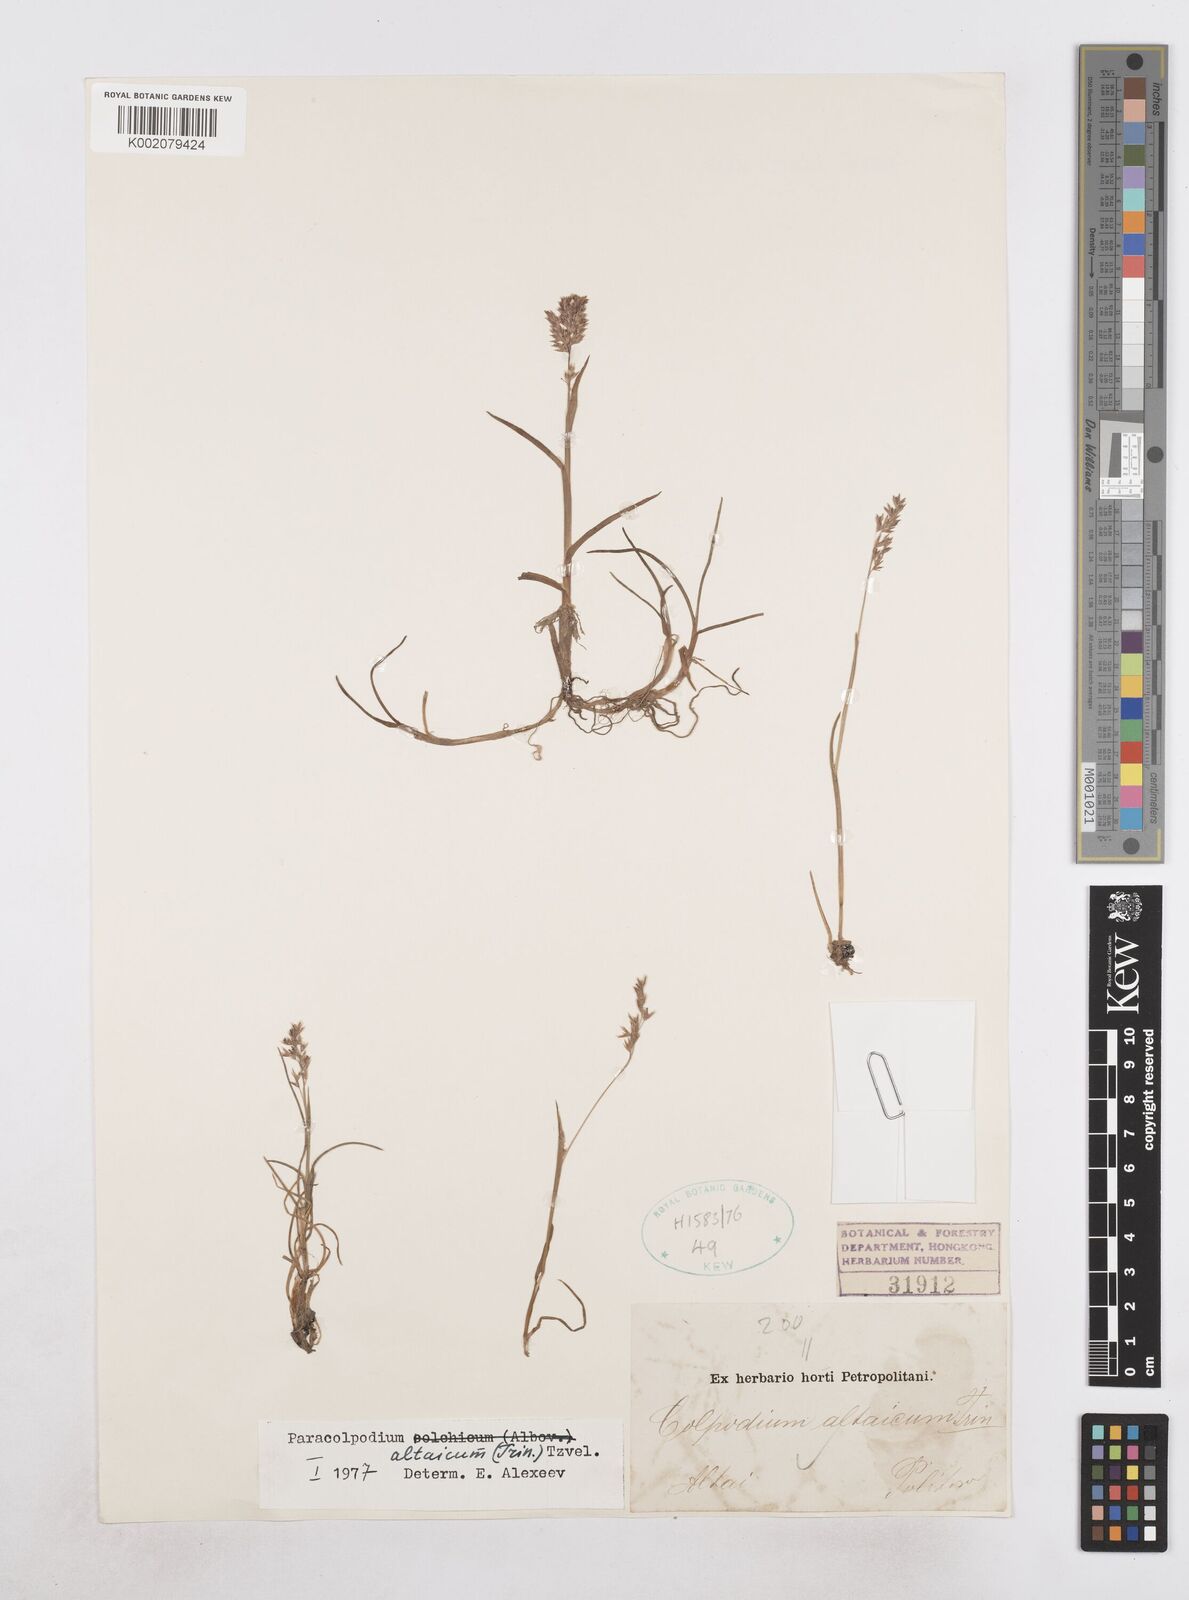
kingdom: Plantae
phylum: Tracheophyta
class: Liliopsida
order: Poales
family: Poaceae
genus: Paracolpodium
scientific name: Paracolpodium altaicum
